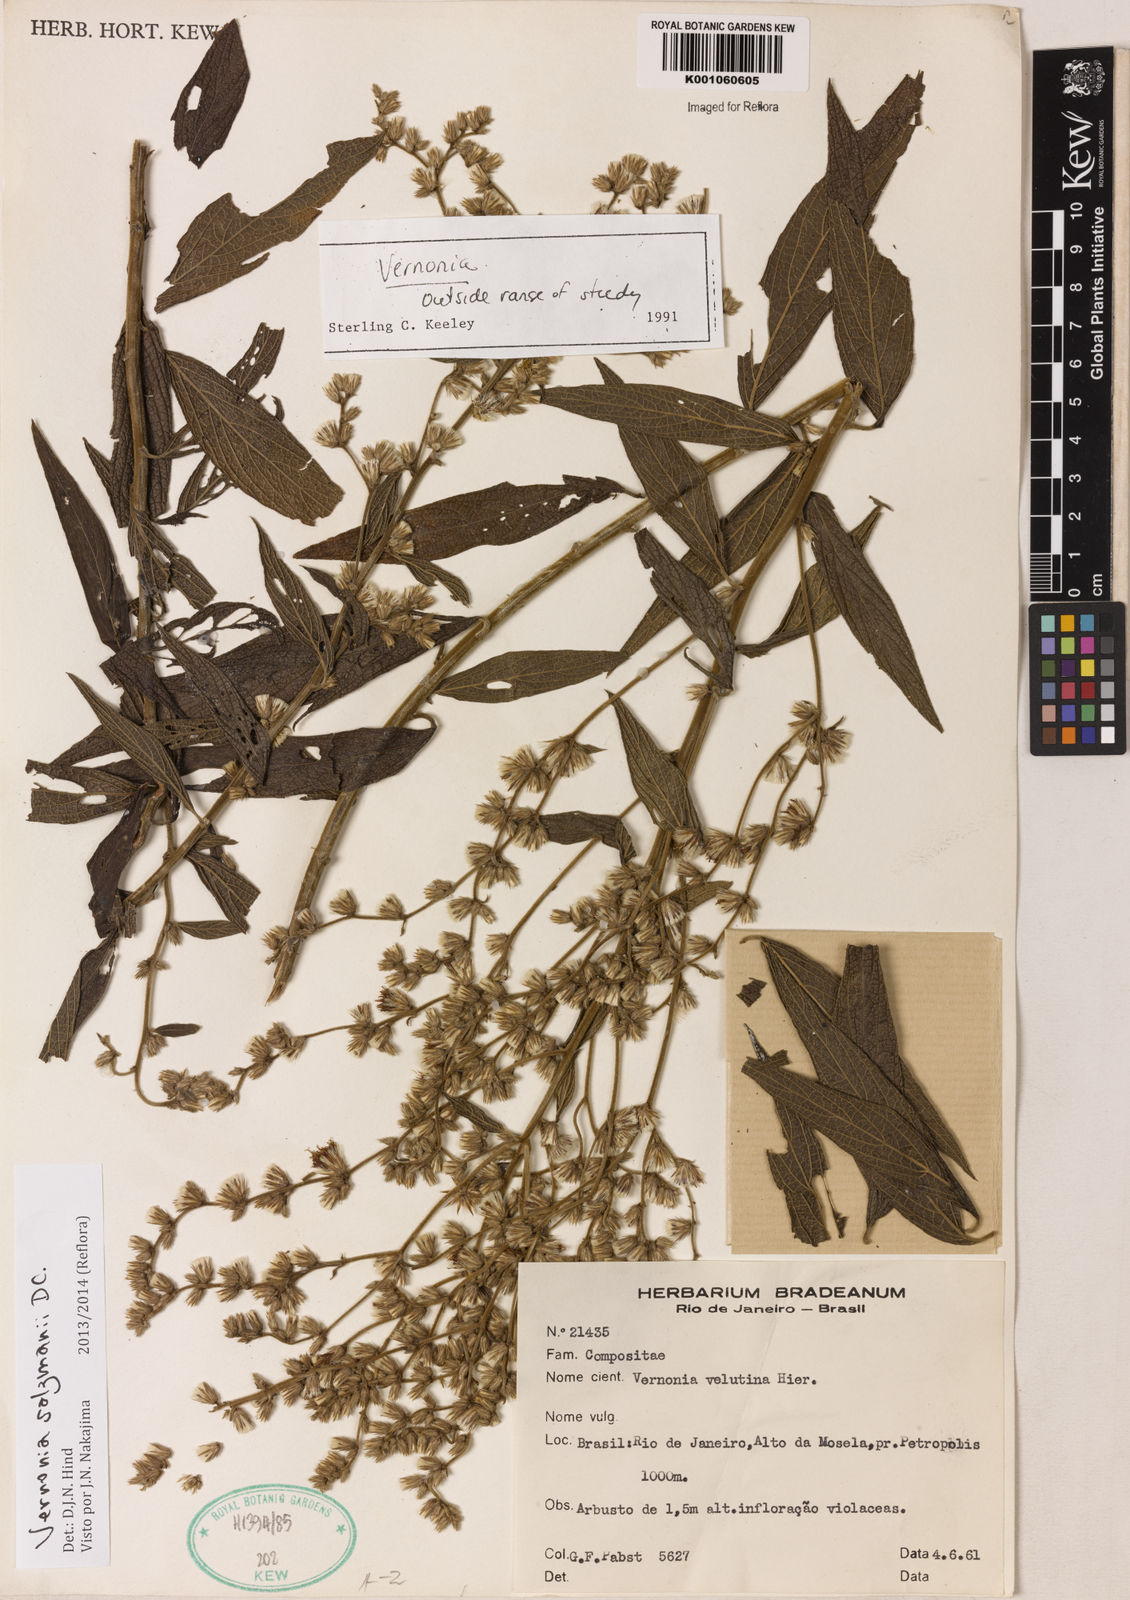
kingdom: Plantae
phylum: Tracheophyta
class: Magnoliopsida
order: Asterales
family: Asteraceae
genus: Lepidaploa
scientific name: Lepidaploa salzmannii
